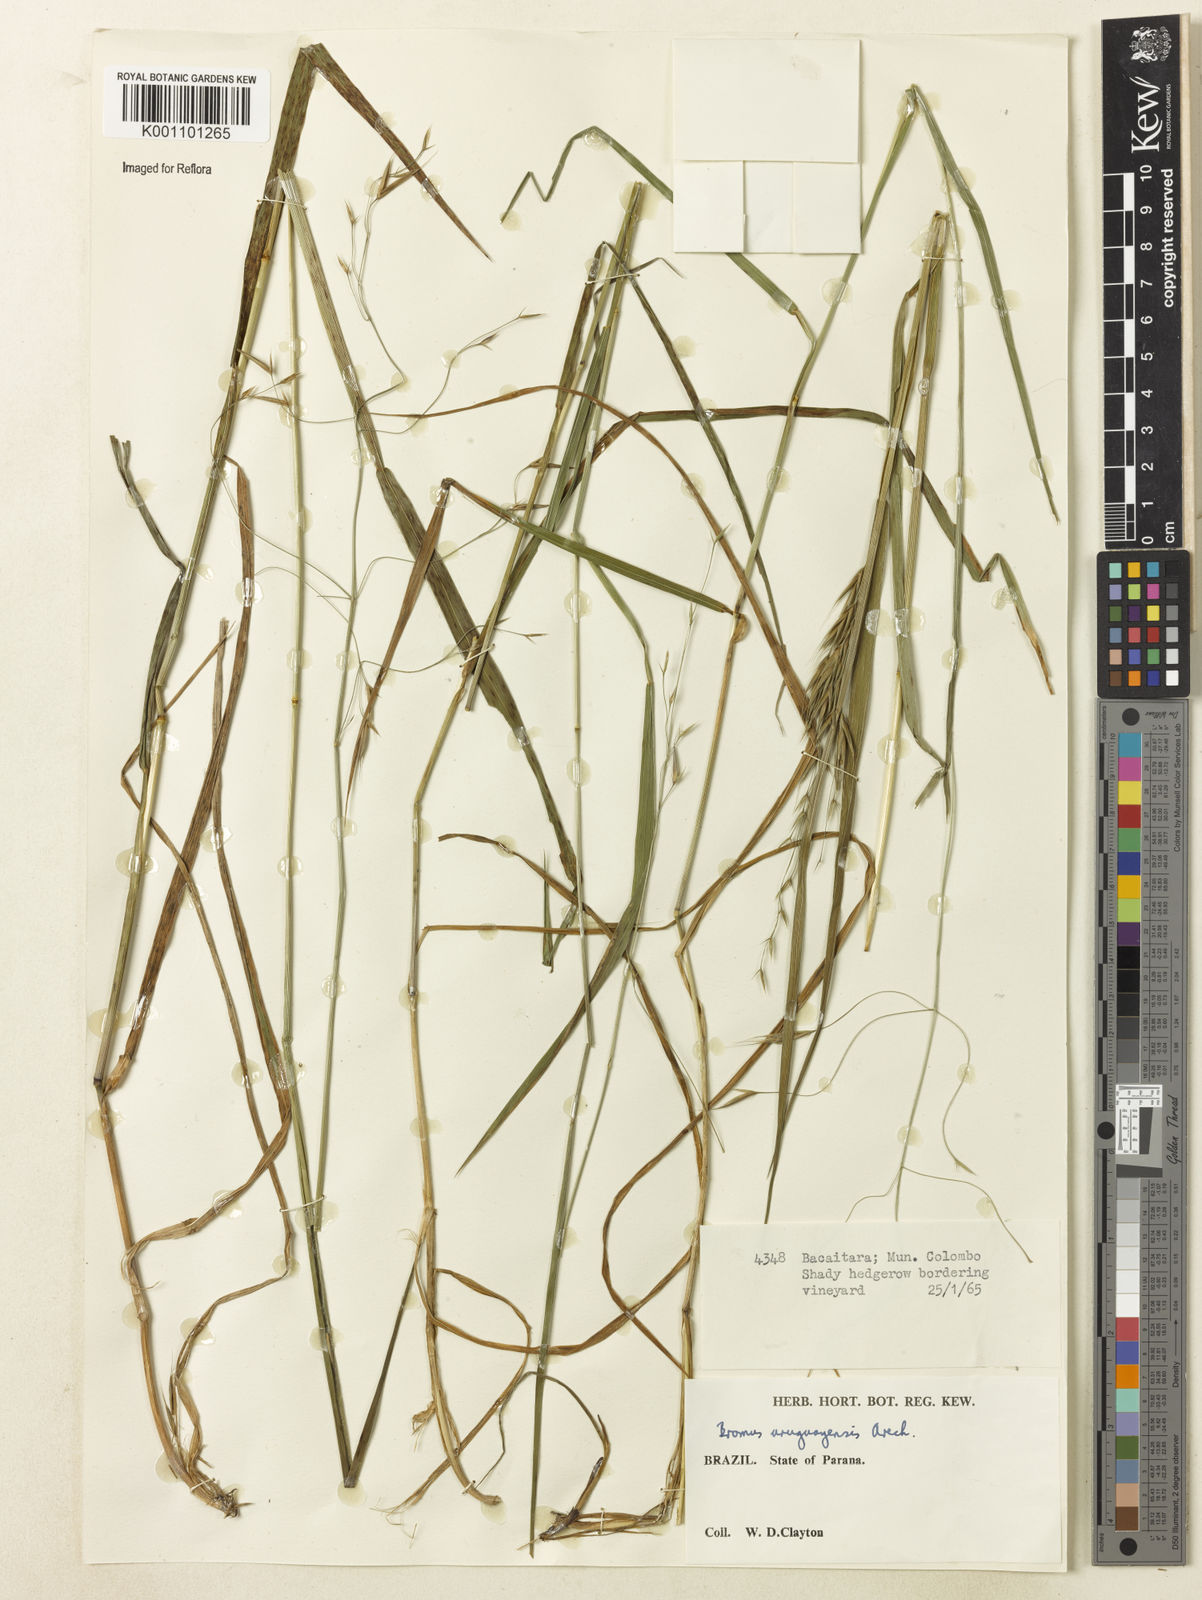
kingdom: Plantae
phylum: Tracheophyta
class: Liliopsida
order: Poales
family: Poaceae
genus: Bromus
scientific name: Bromus
